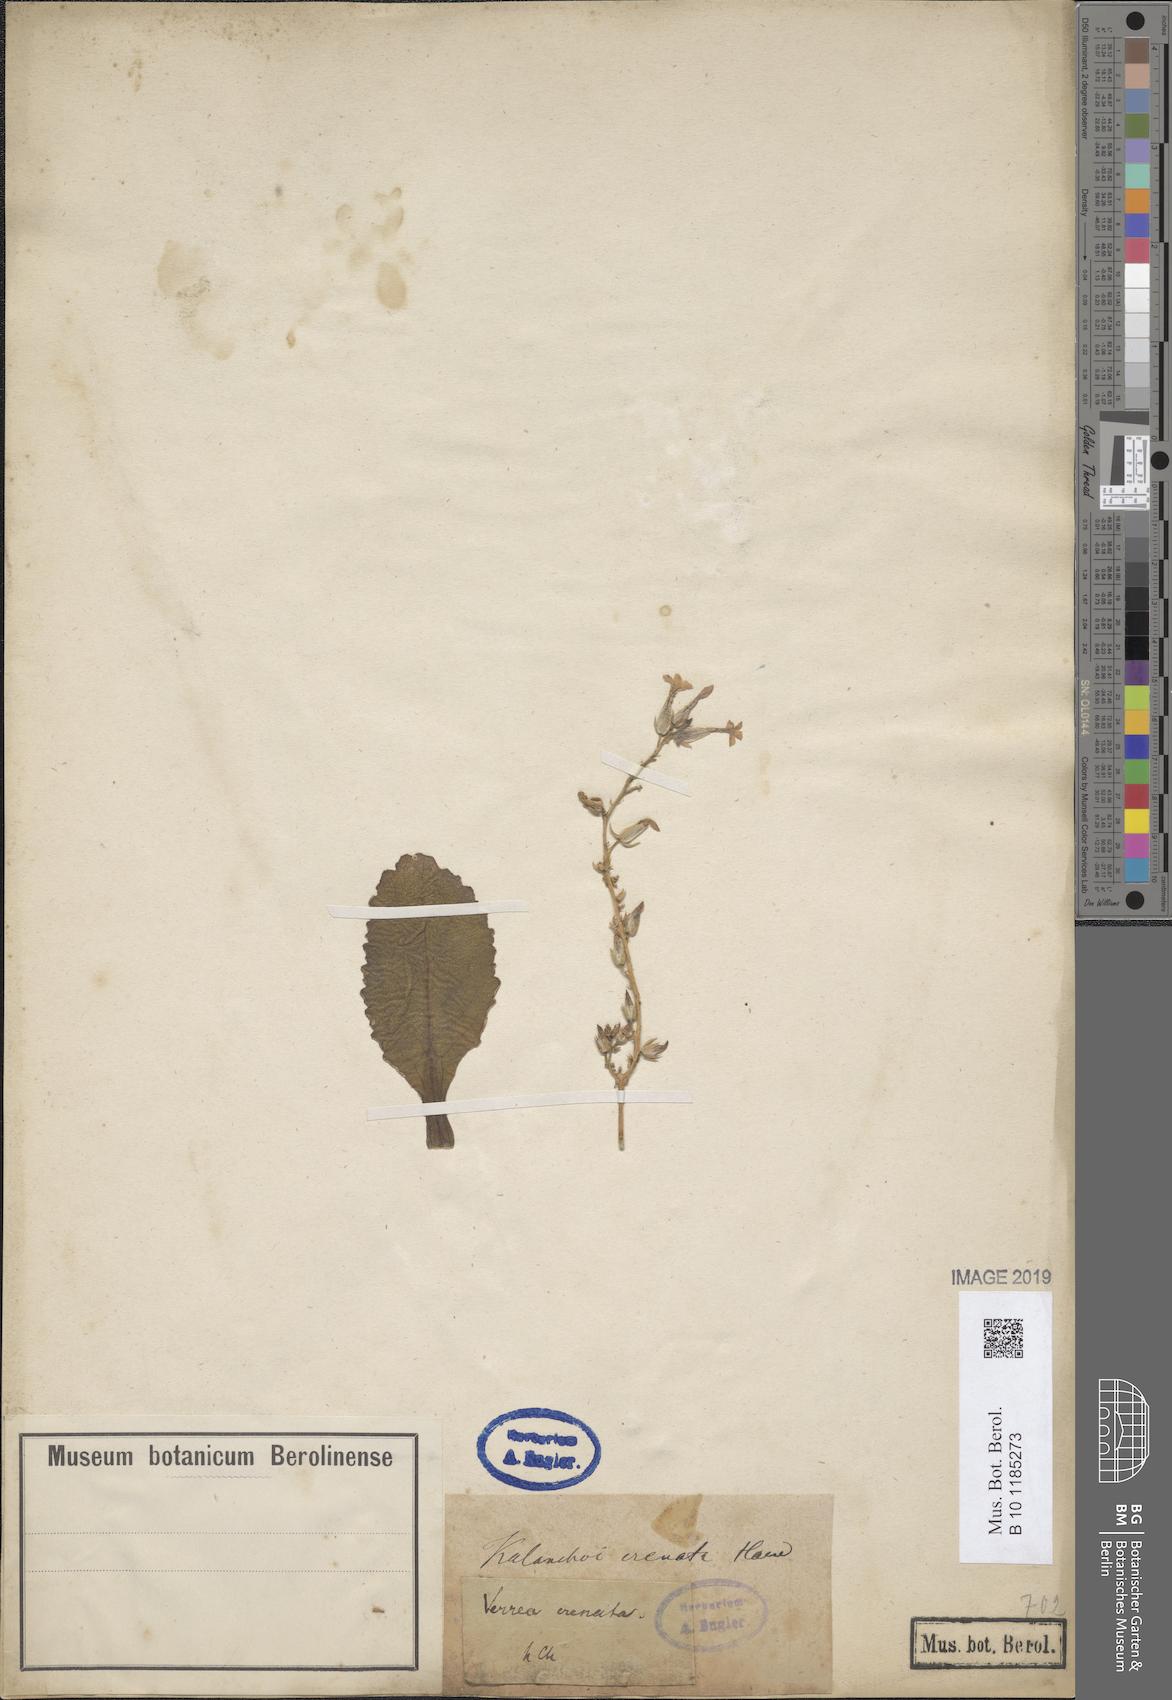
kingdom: Plantae
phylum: Tracheophyta
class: Magnoliopsida
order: Saxifragales
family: Crassulaceae
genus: Kalanchoe
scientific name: Kalanchoe crenata
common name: Neverdie
